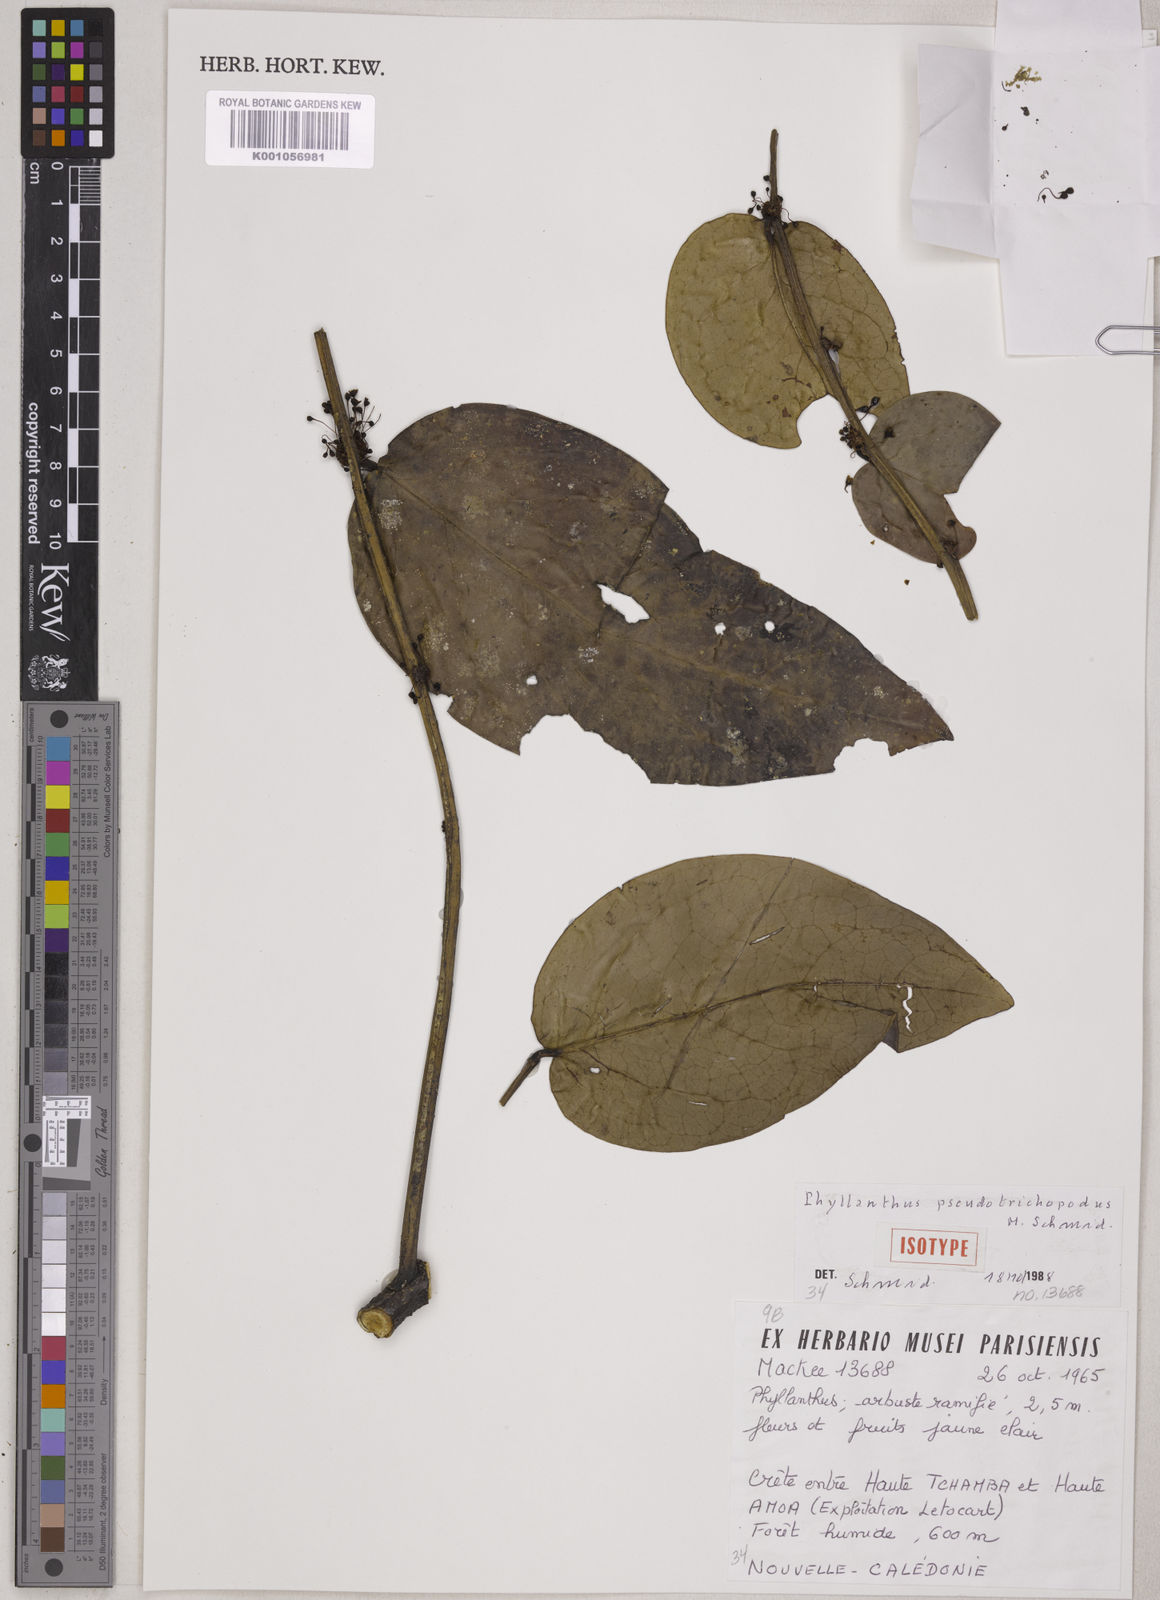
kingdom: Plantae
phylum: Tracheophyta
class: Magnoliopsida
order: Malpighiales
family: Phyllanthaceae
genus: Phyllanthus
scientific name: Phyllanthus pseudotrichopodus
